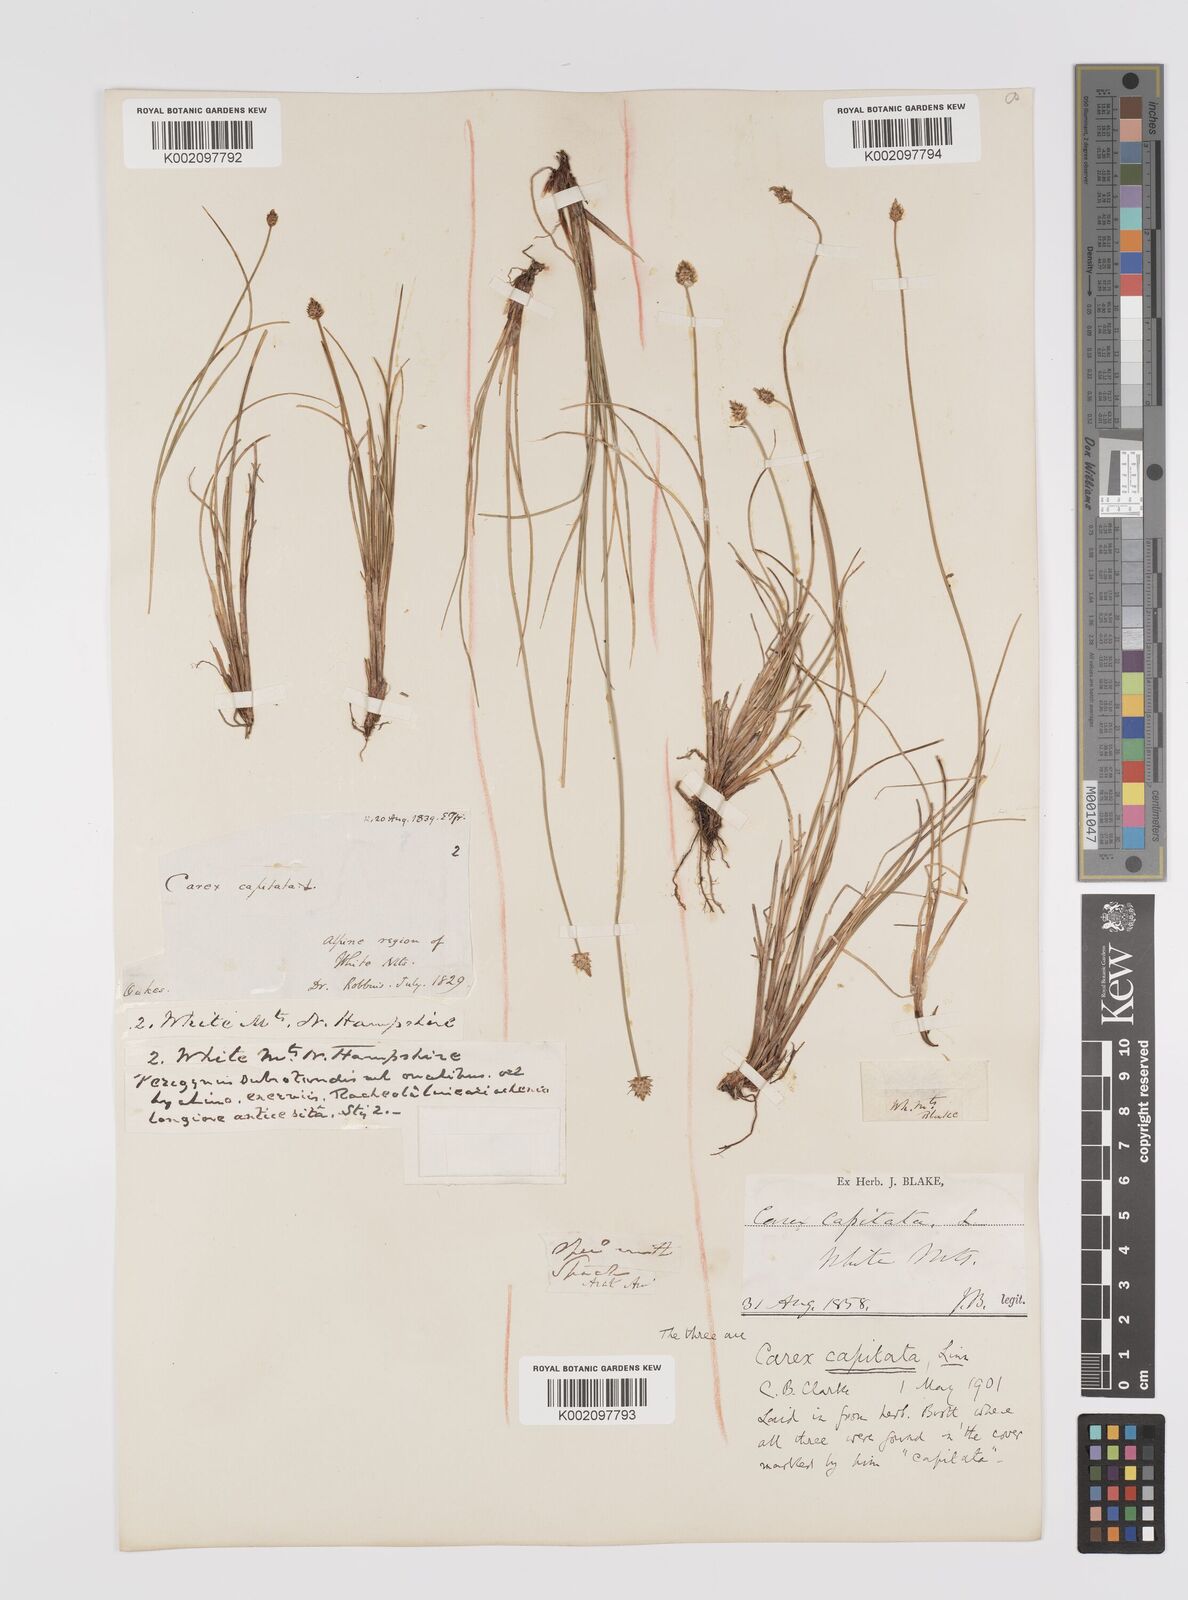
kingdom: Plantae
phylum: Tracheophyta
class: Liliopsida
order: Poales
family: Cyperaceae
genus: Carex
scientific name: Carex capitata
